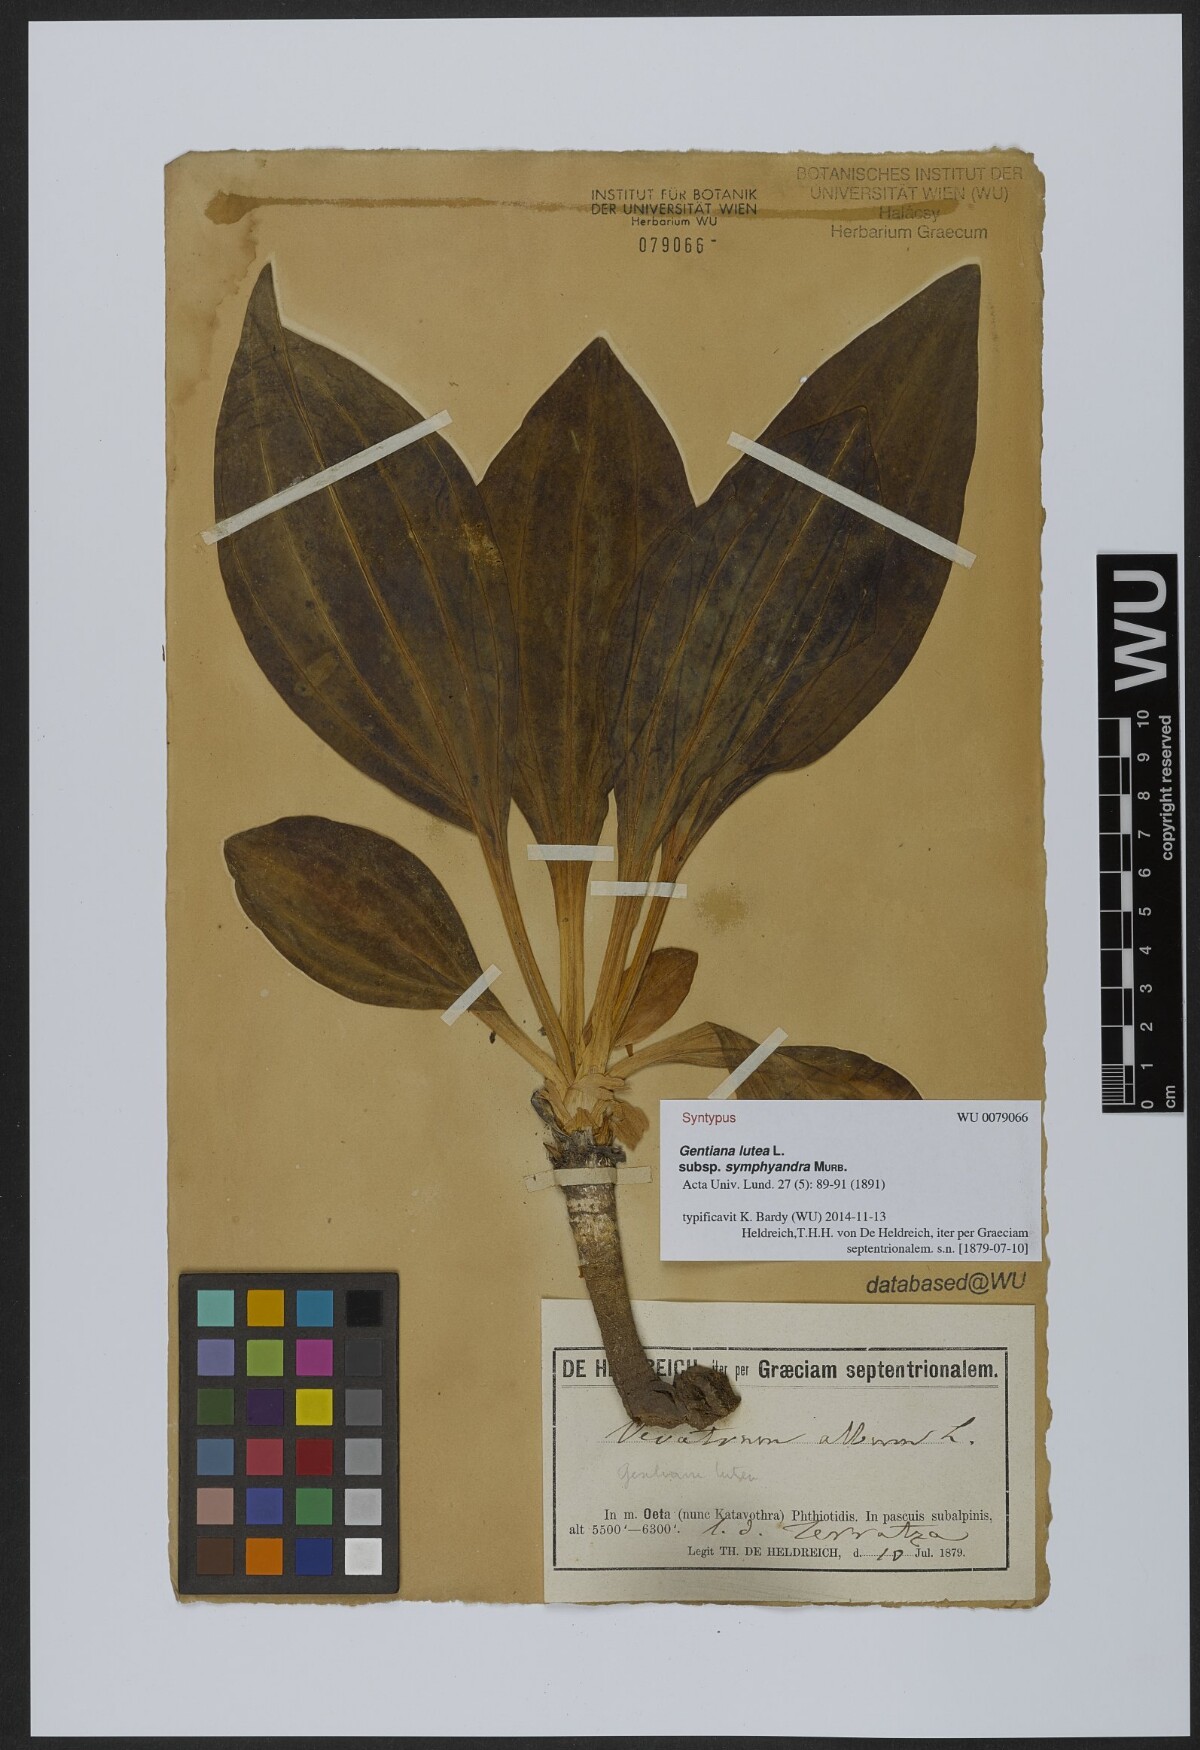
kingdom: Plantae
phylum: Tracheophyta
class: Magnoliopsida
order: Gentianales
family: Gentianaceae
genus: Gentiana
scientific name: Gentiana lutea
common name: Great yellow gentian
